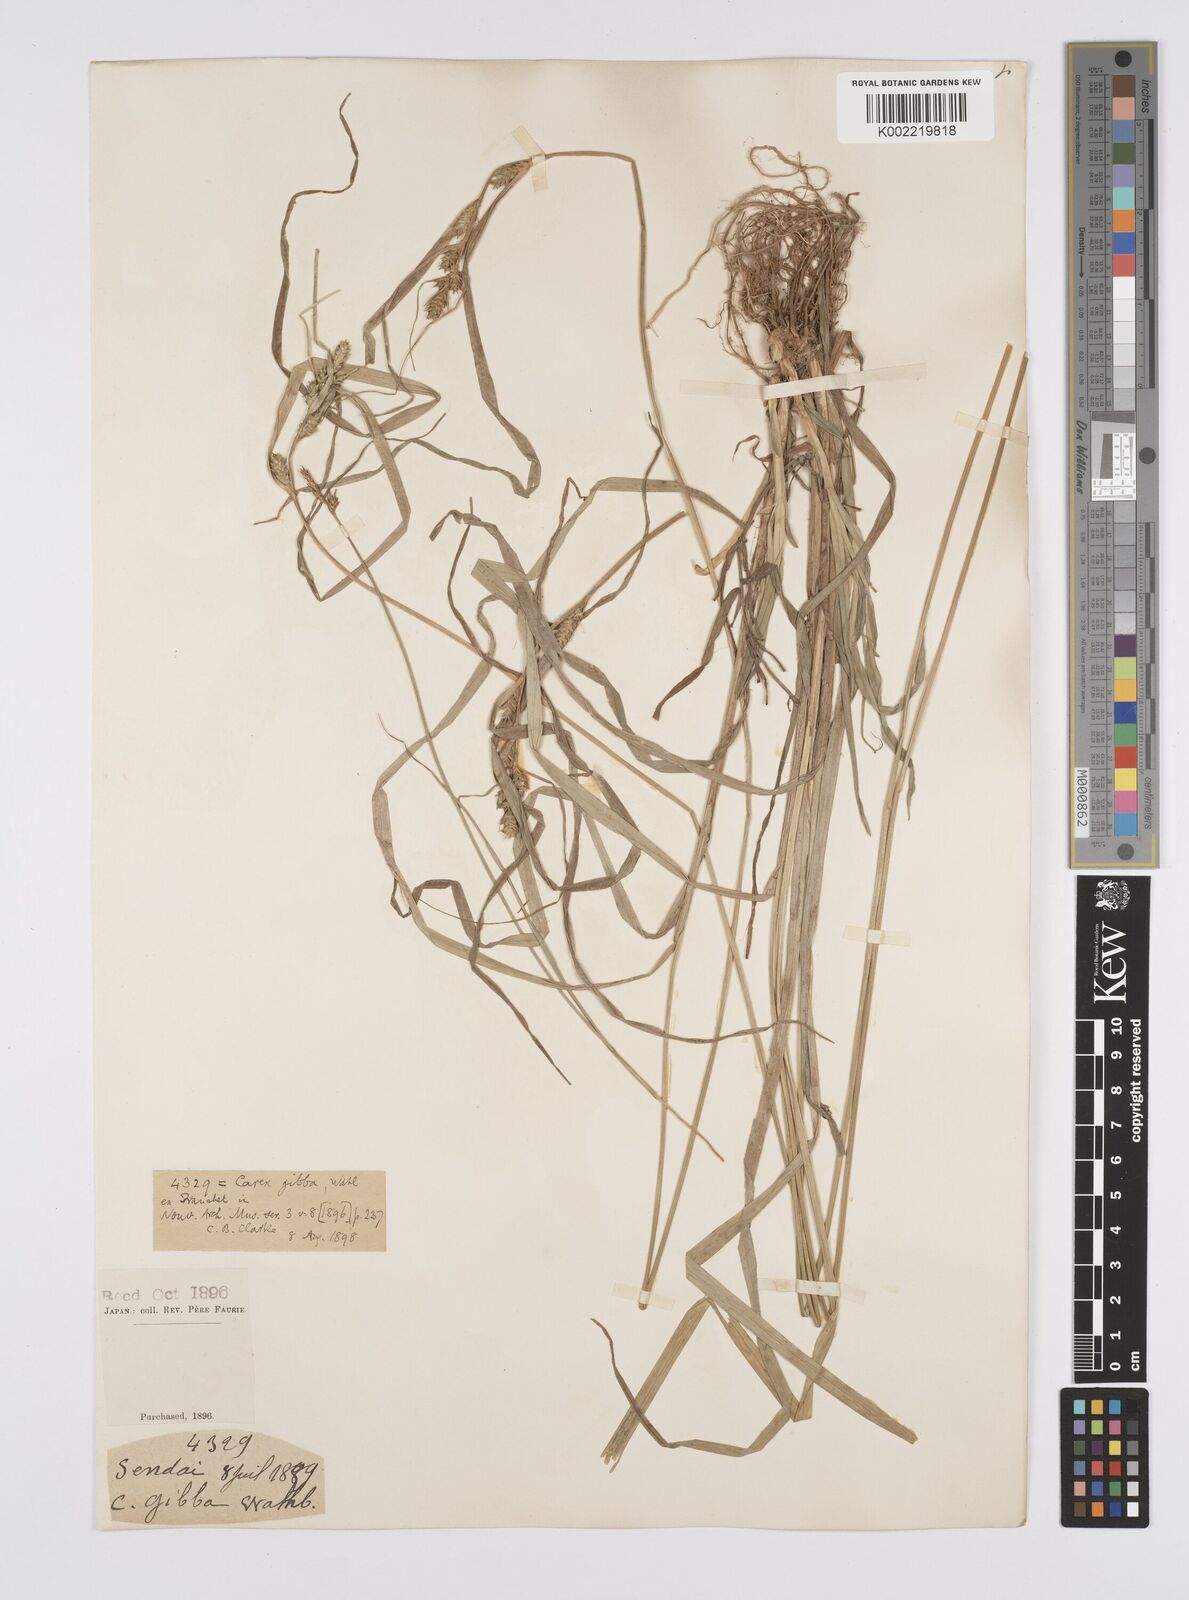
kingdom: Plantae
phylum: Tracheophyta
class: Liliopsida
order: Poales
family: Cyperaceae
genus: Carex
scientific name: Carex gibba
